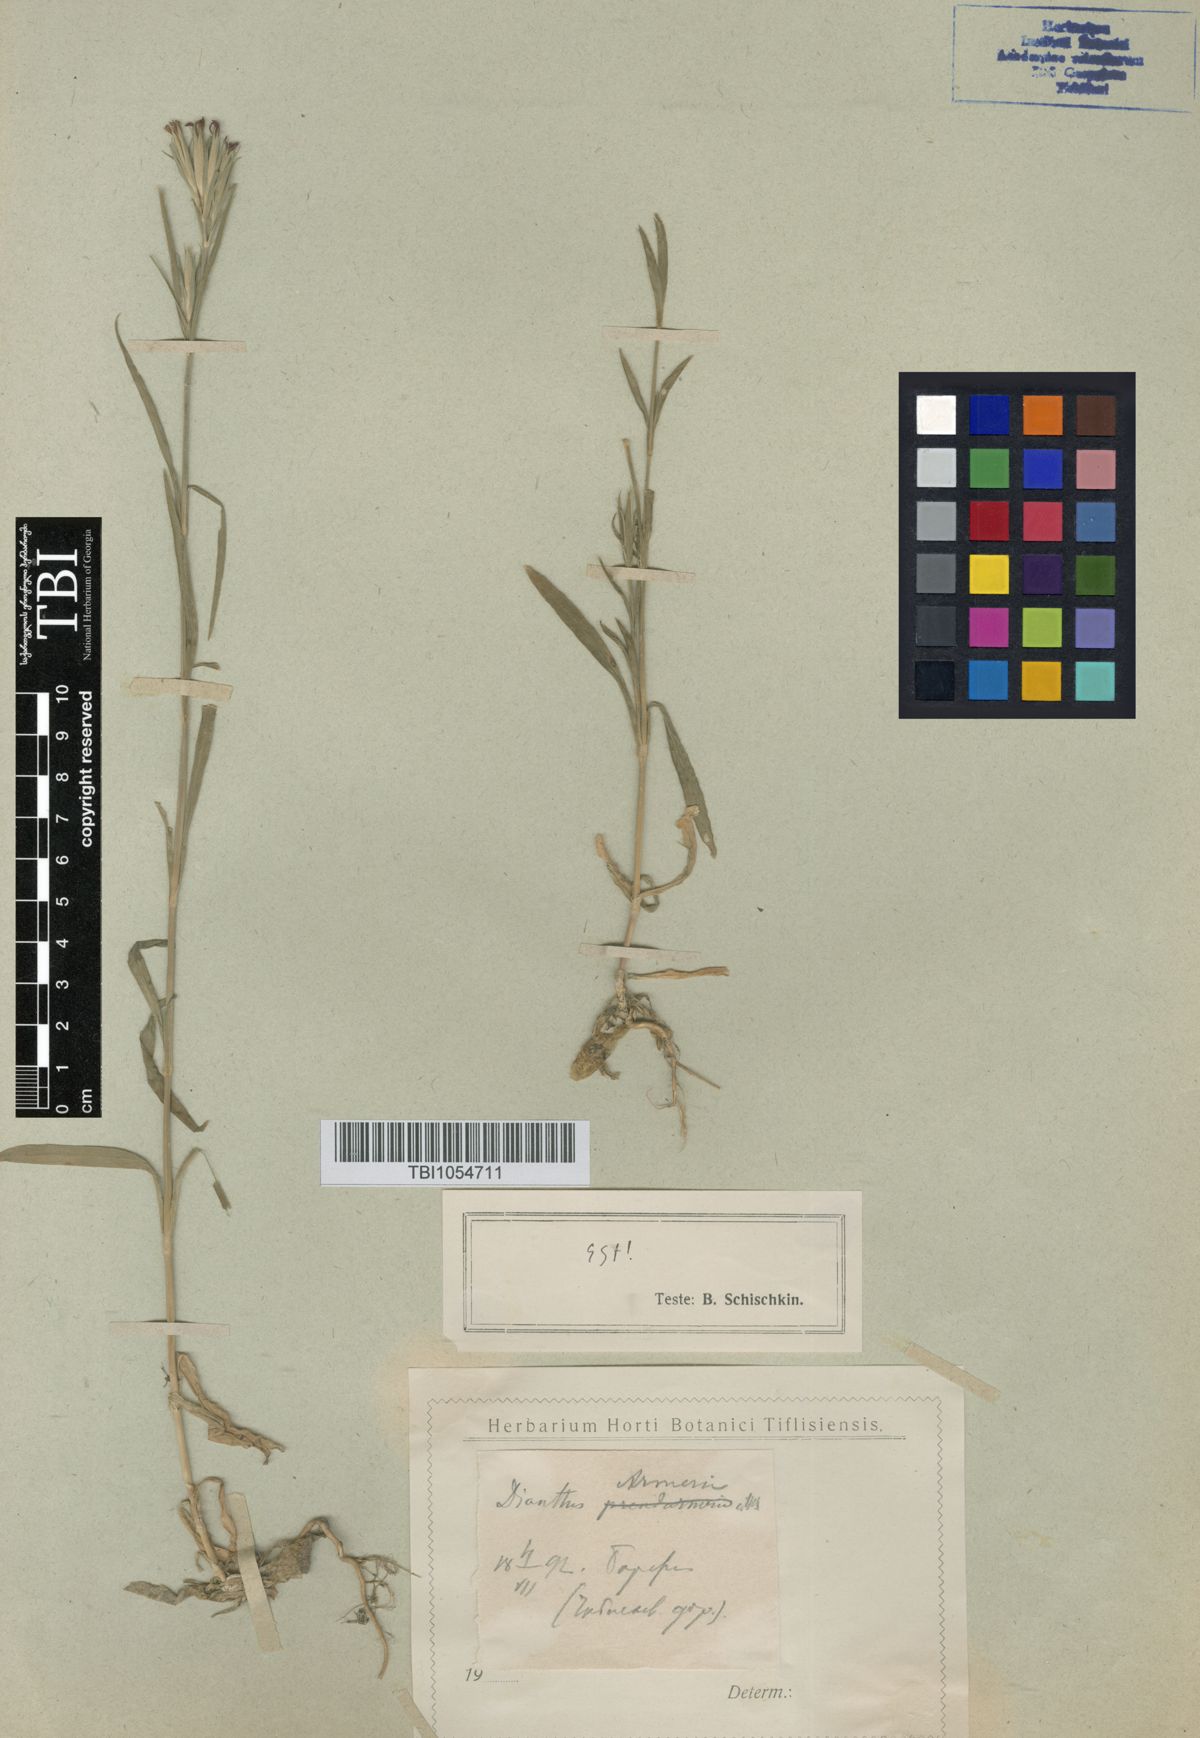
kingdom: Plantae
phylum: Tracheophyta
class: Magnoliopsida
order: Caryophyllales
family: Caryophyllaceae
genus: Dianthus
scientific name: Dianthus armeria
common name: Deptford pink
